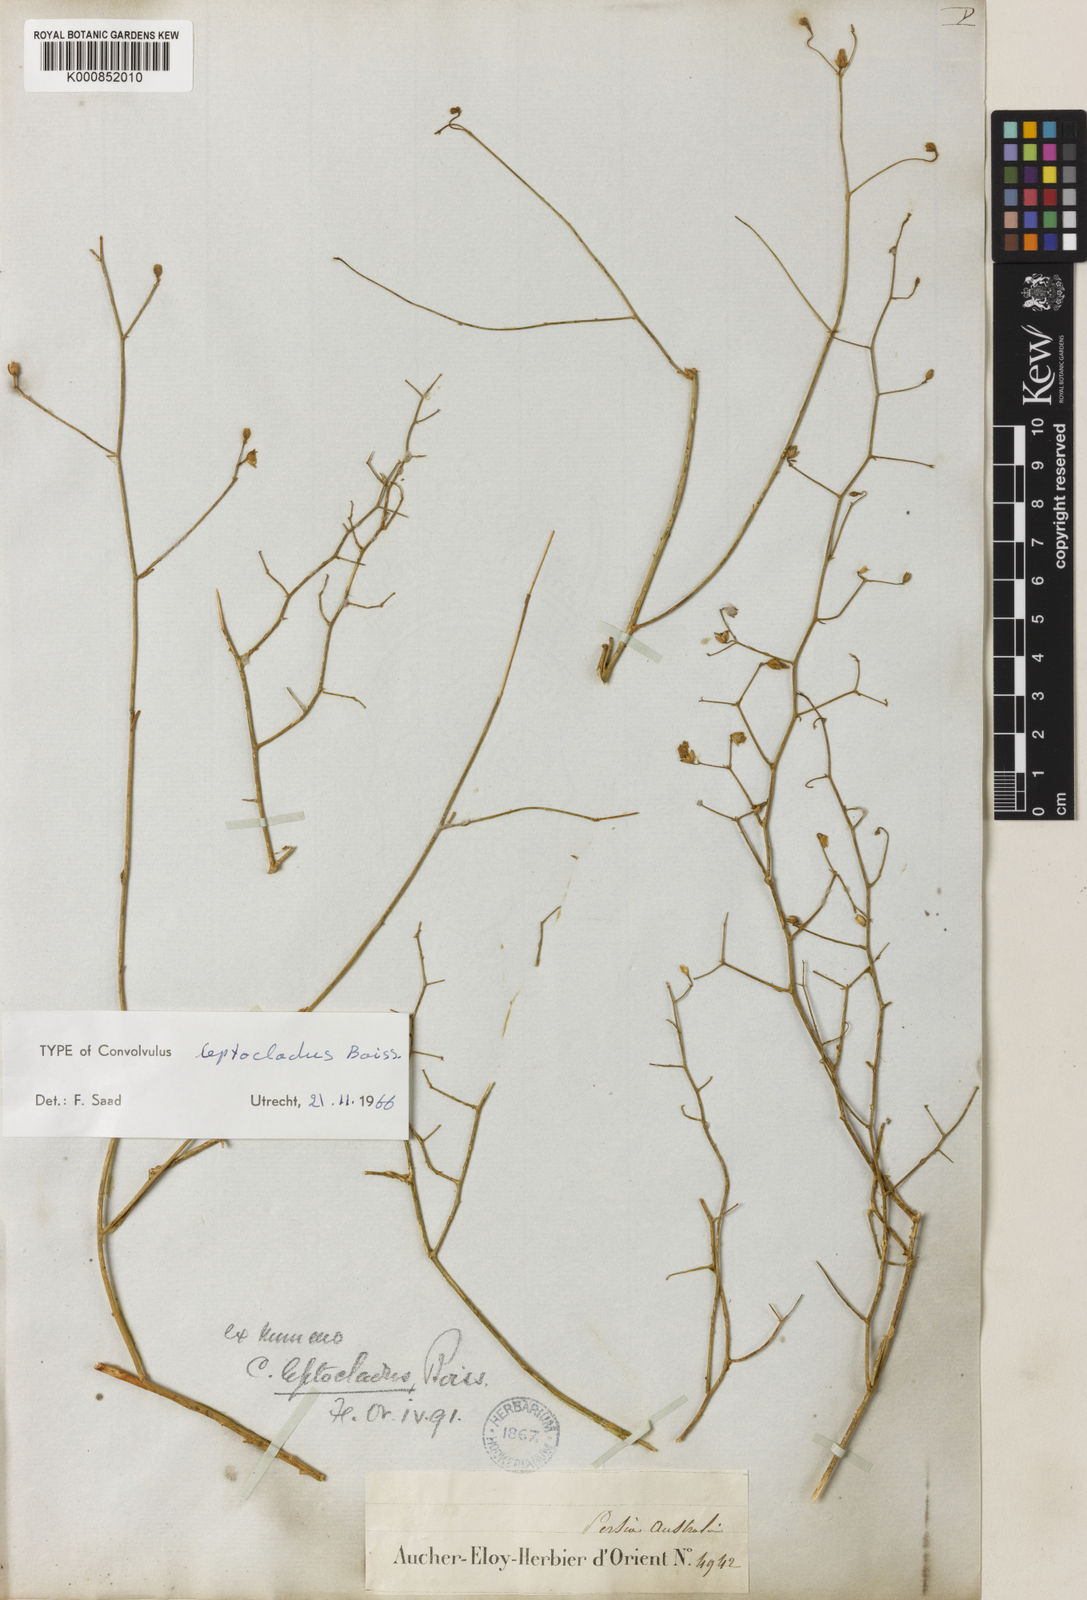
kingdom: Plantae
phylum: Tracheophyta
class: Magnoliopsida
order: Solanales
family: Convolvulaceae
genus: Convolvulus
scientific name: Convolvulus leptocladus
